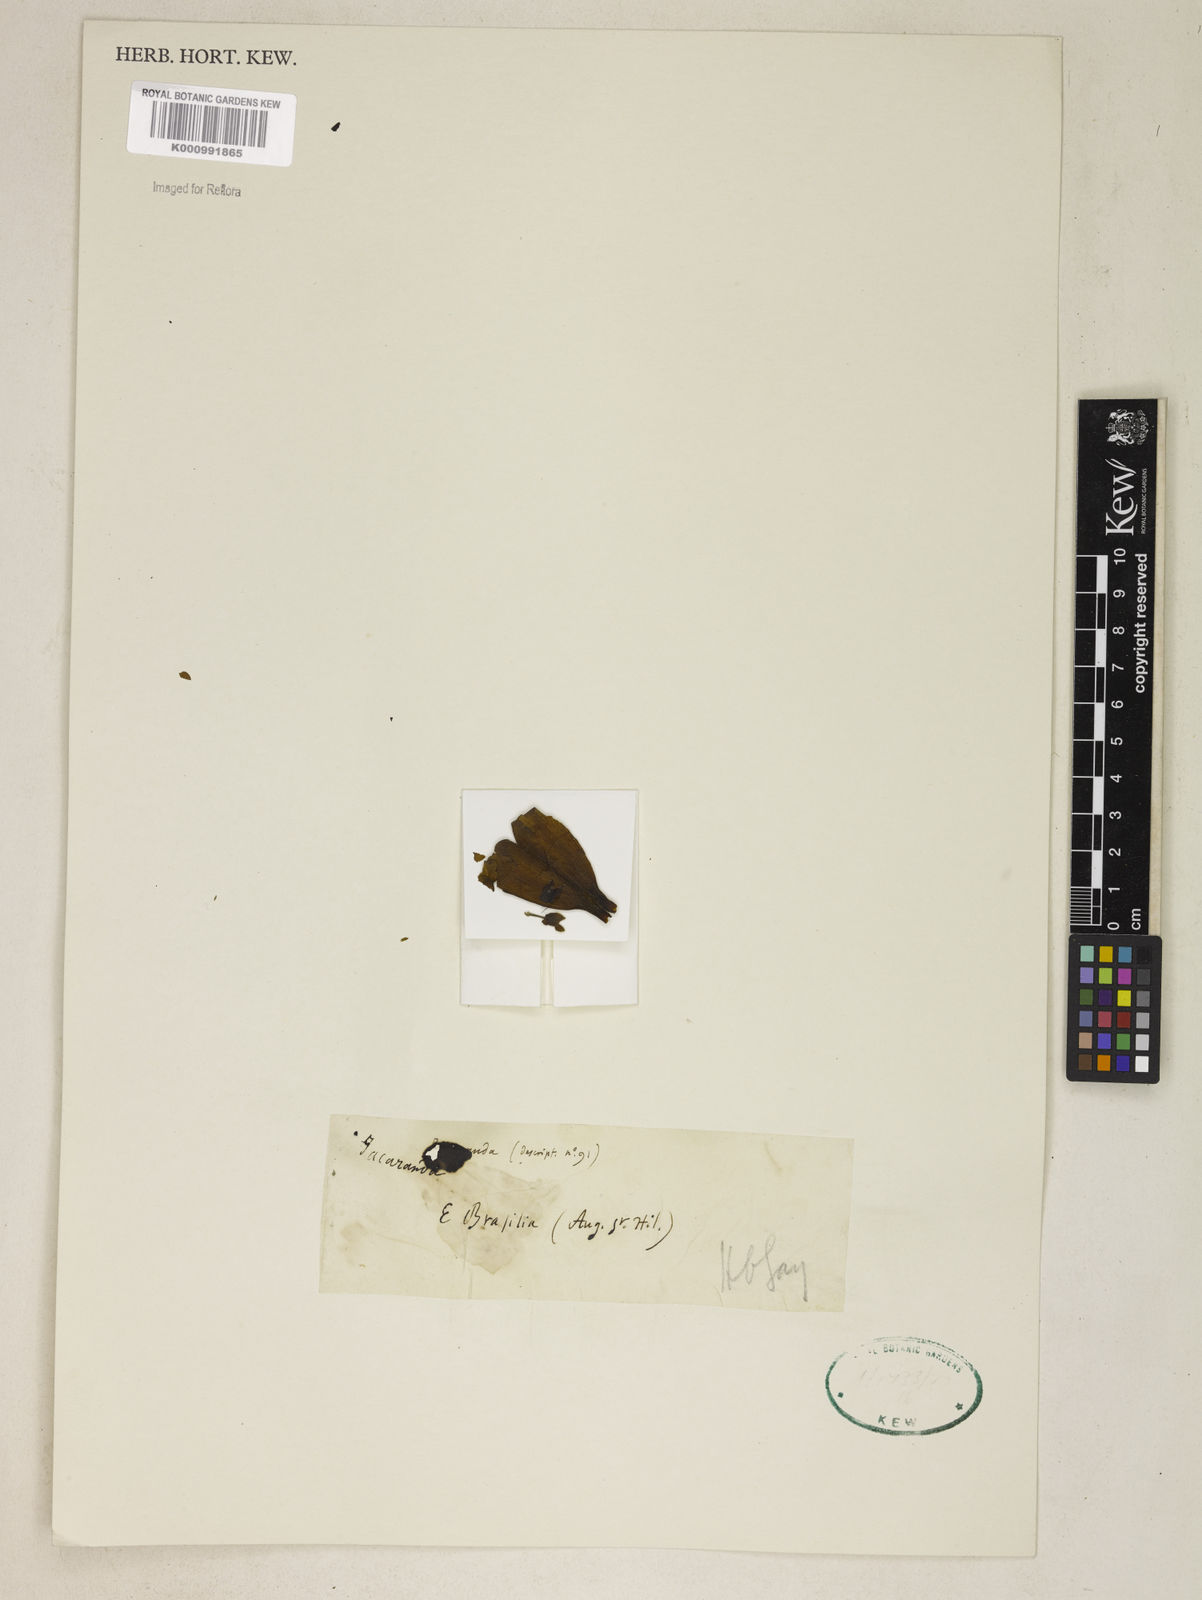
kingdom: Plantae
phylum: Tracheophyta
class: Magnoliopsida
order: Lamiales
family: Bignoniaceae
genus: Jacaranda
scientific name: Jacaranda
